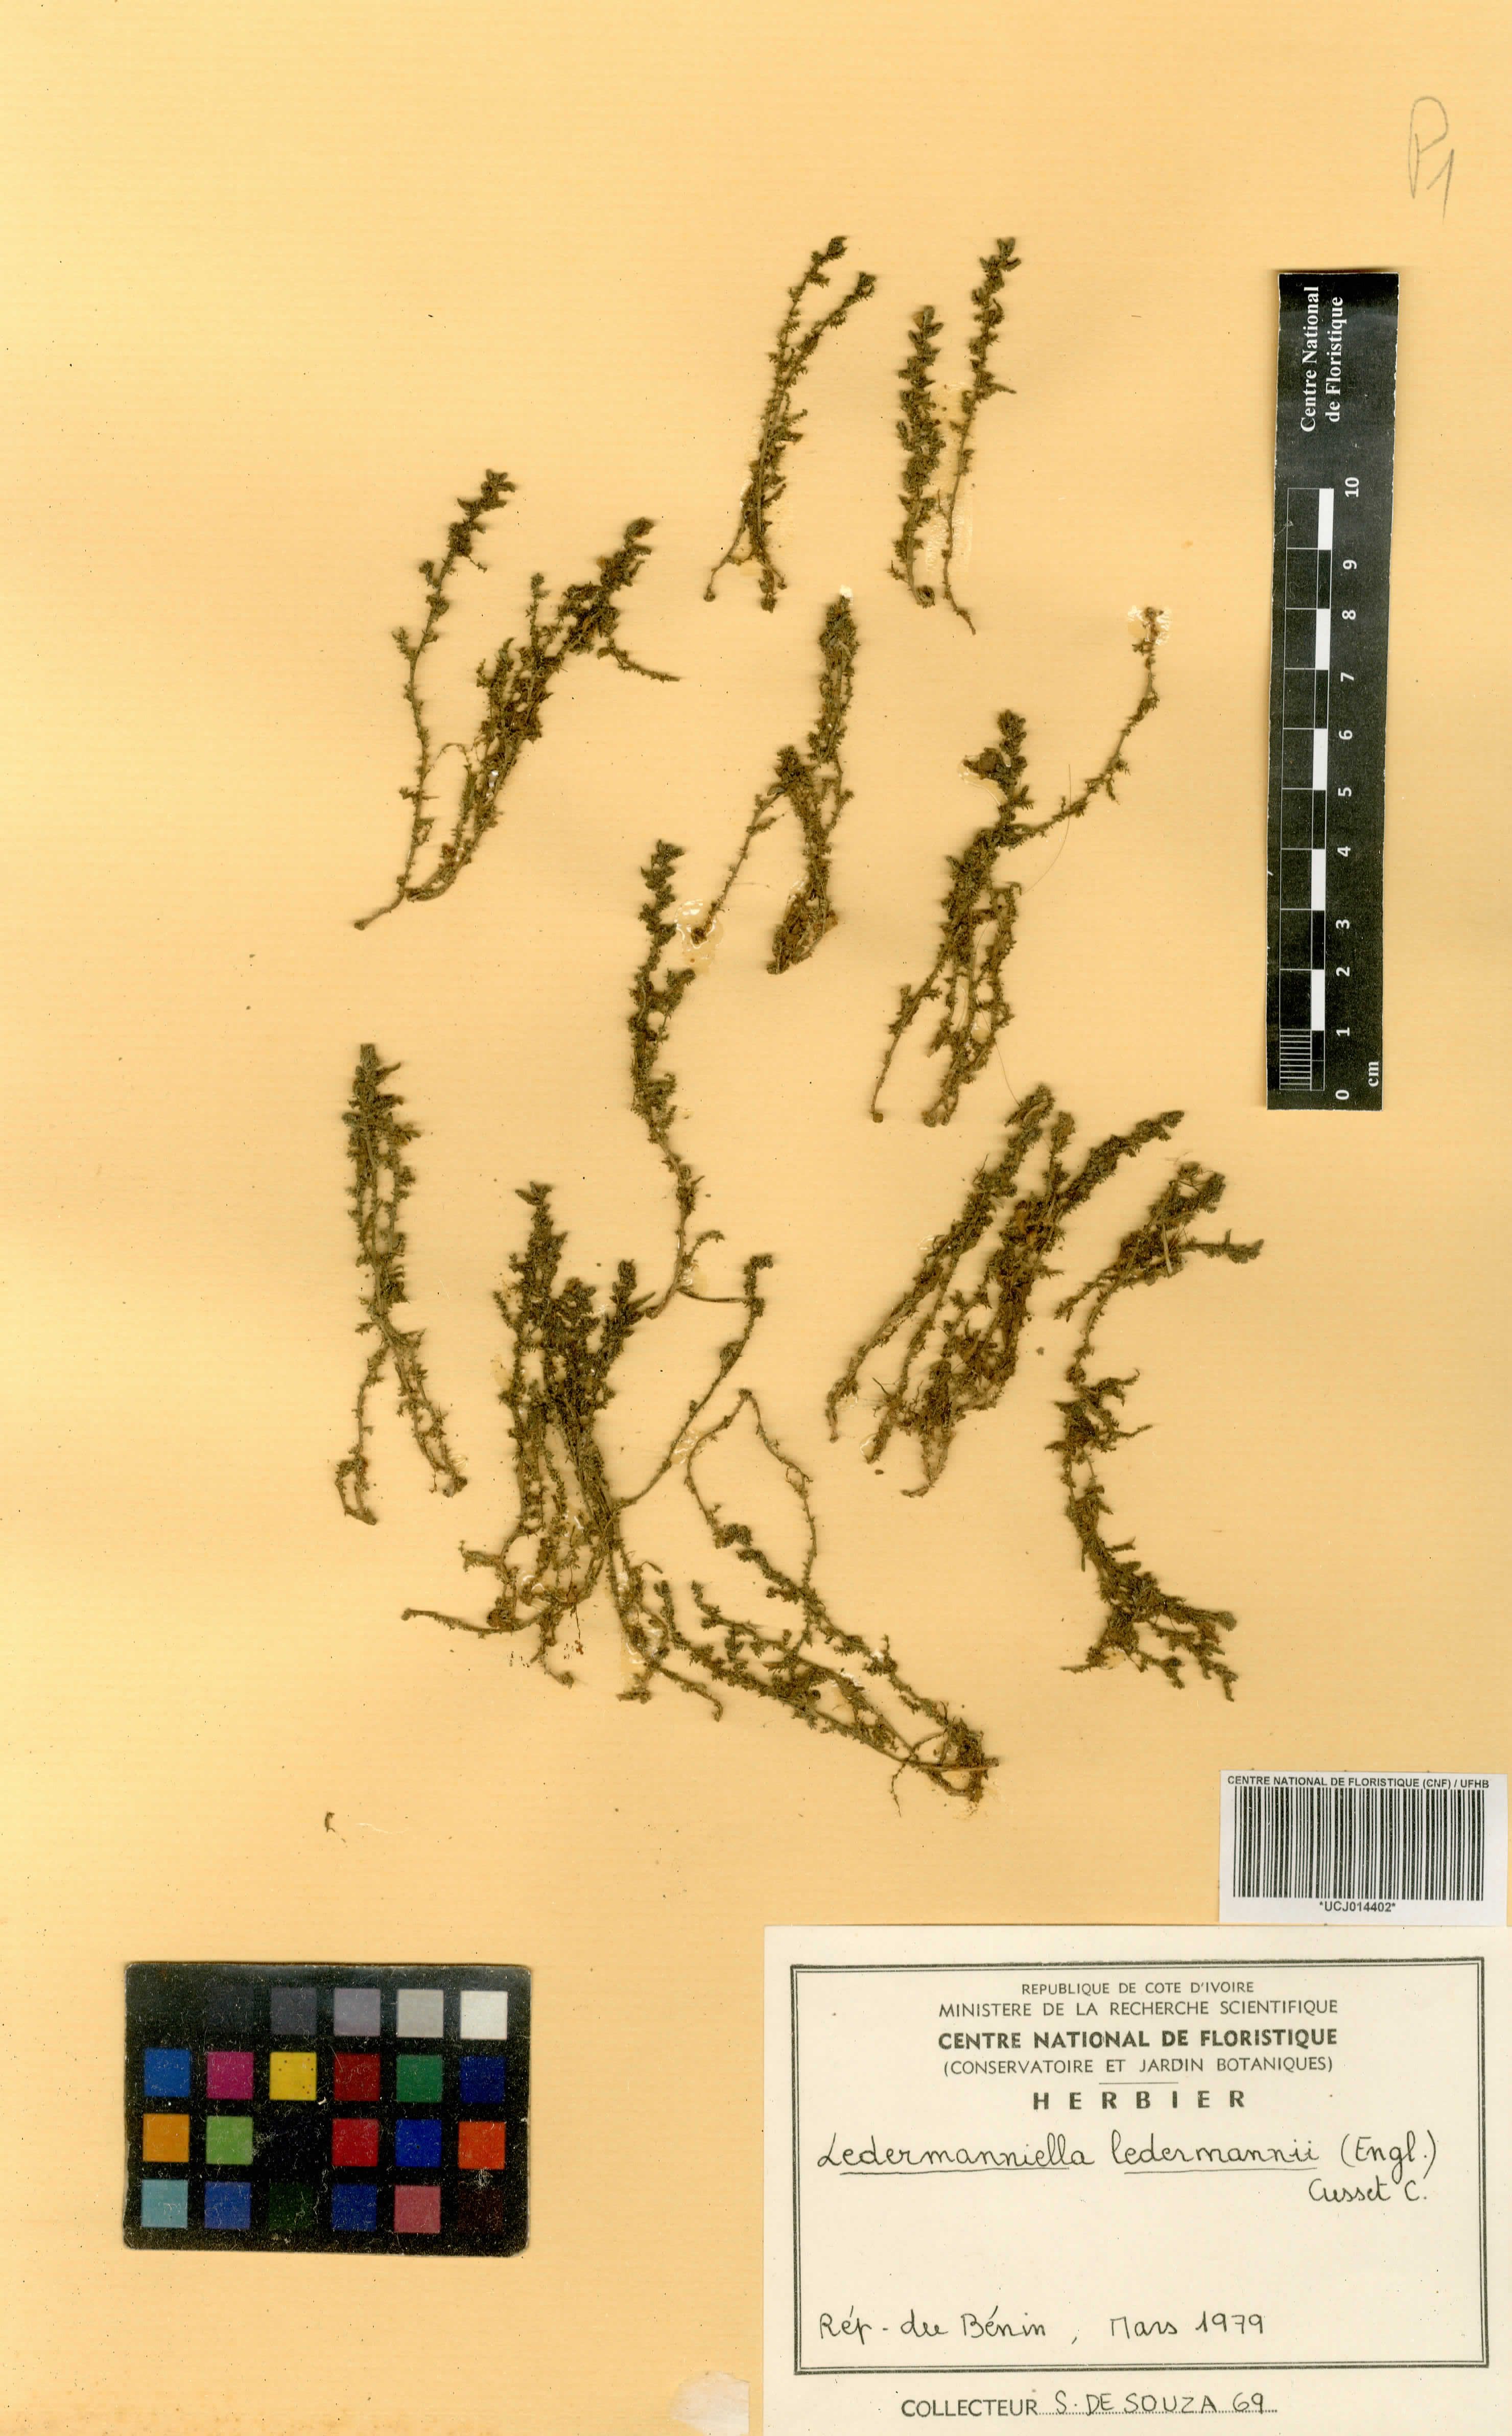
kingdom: Plantae
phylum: Tracheophyta
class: Magnoliopsida
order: Malpighiales
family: Podostemaceae
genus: Inversodicraea
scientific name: Inversodicraea ledermannii
